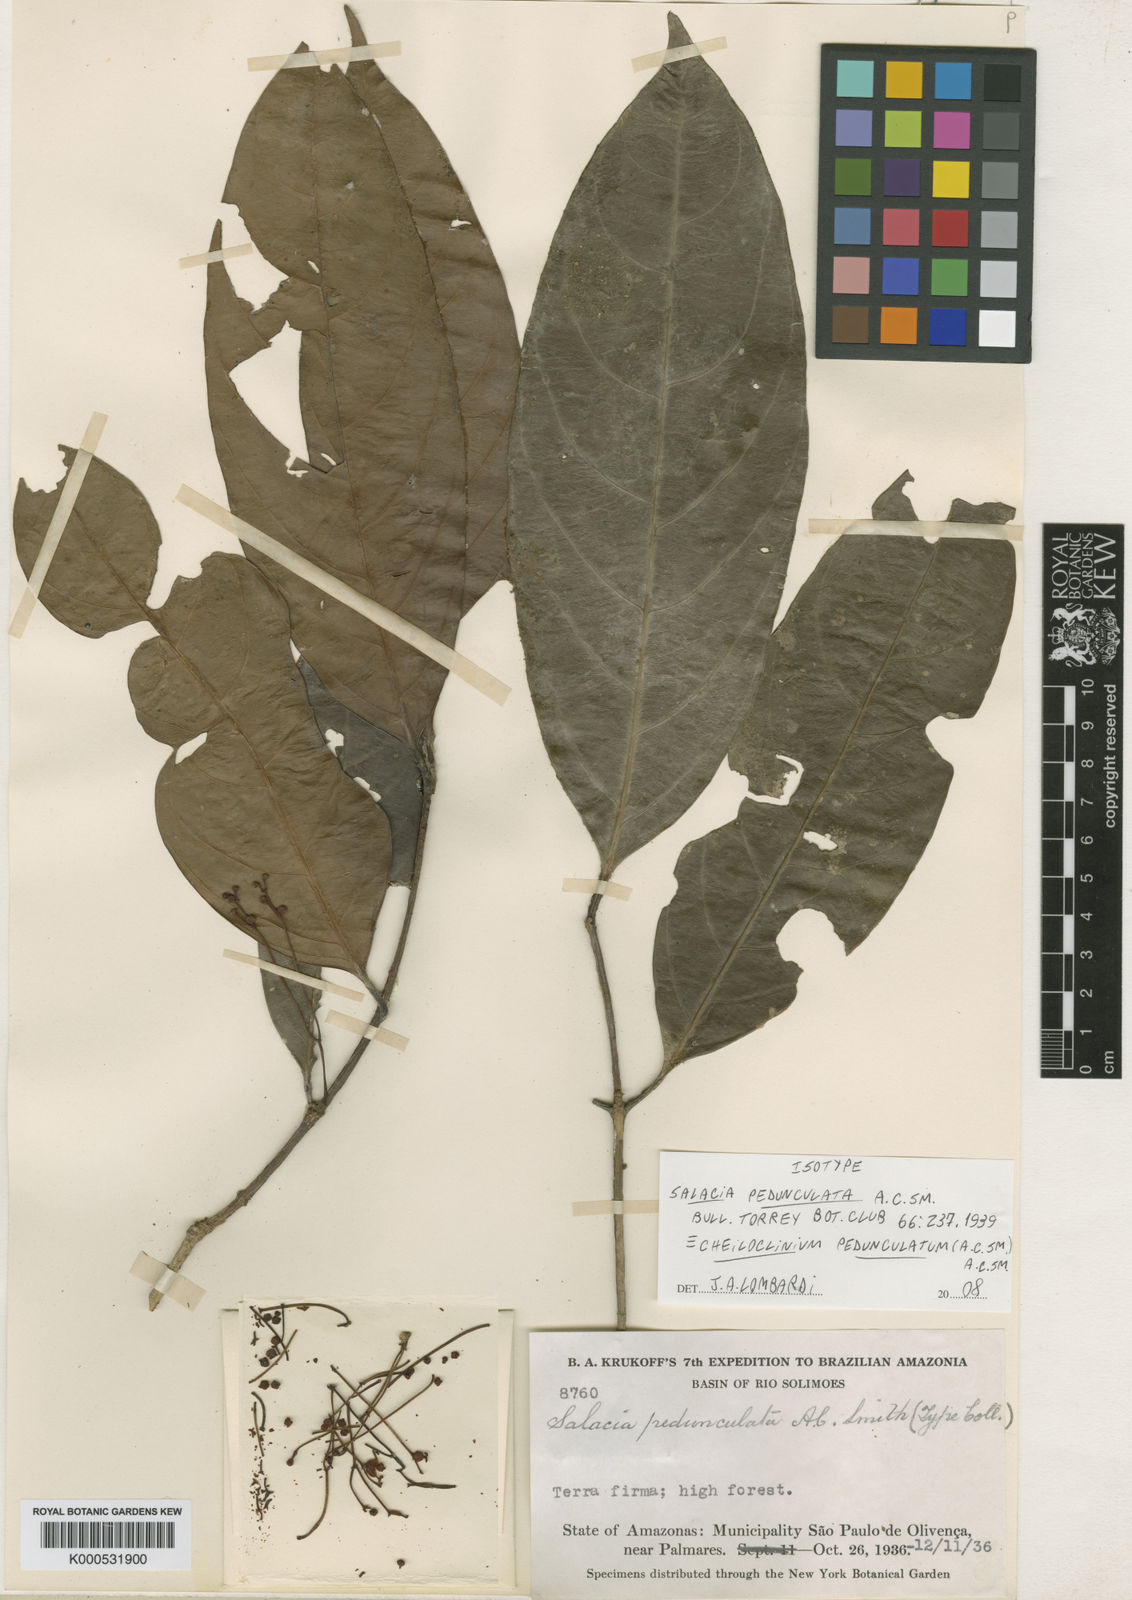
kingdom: Plantae
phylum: Tracheophyta
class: Magnoliopsida
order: Celastrales
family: Celastraceae
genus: Cheiloclinium
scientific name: Cheiloclinium pedunculatum
